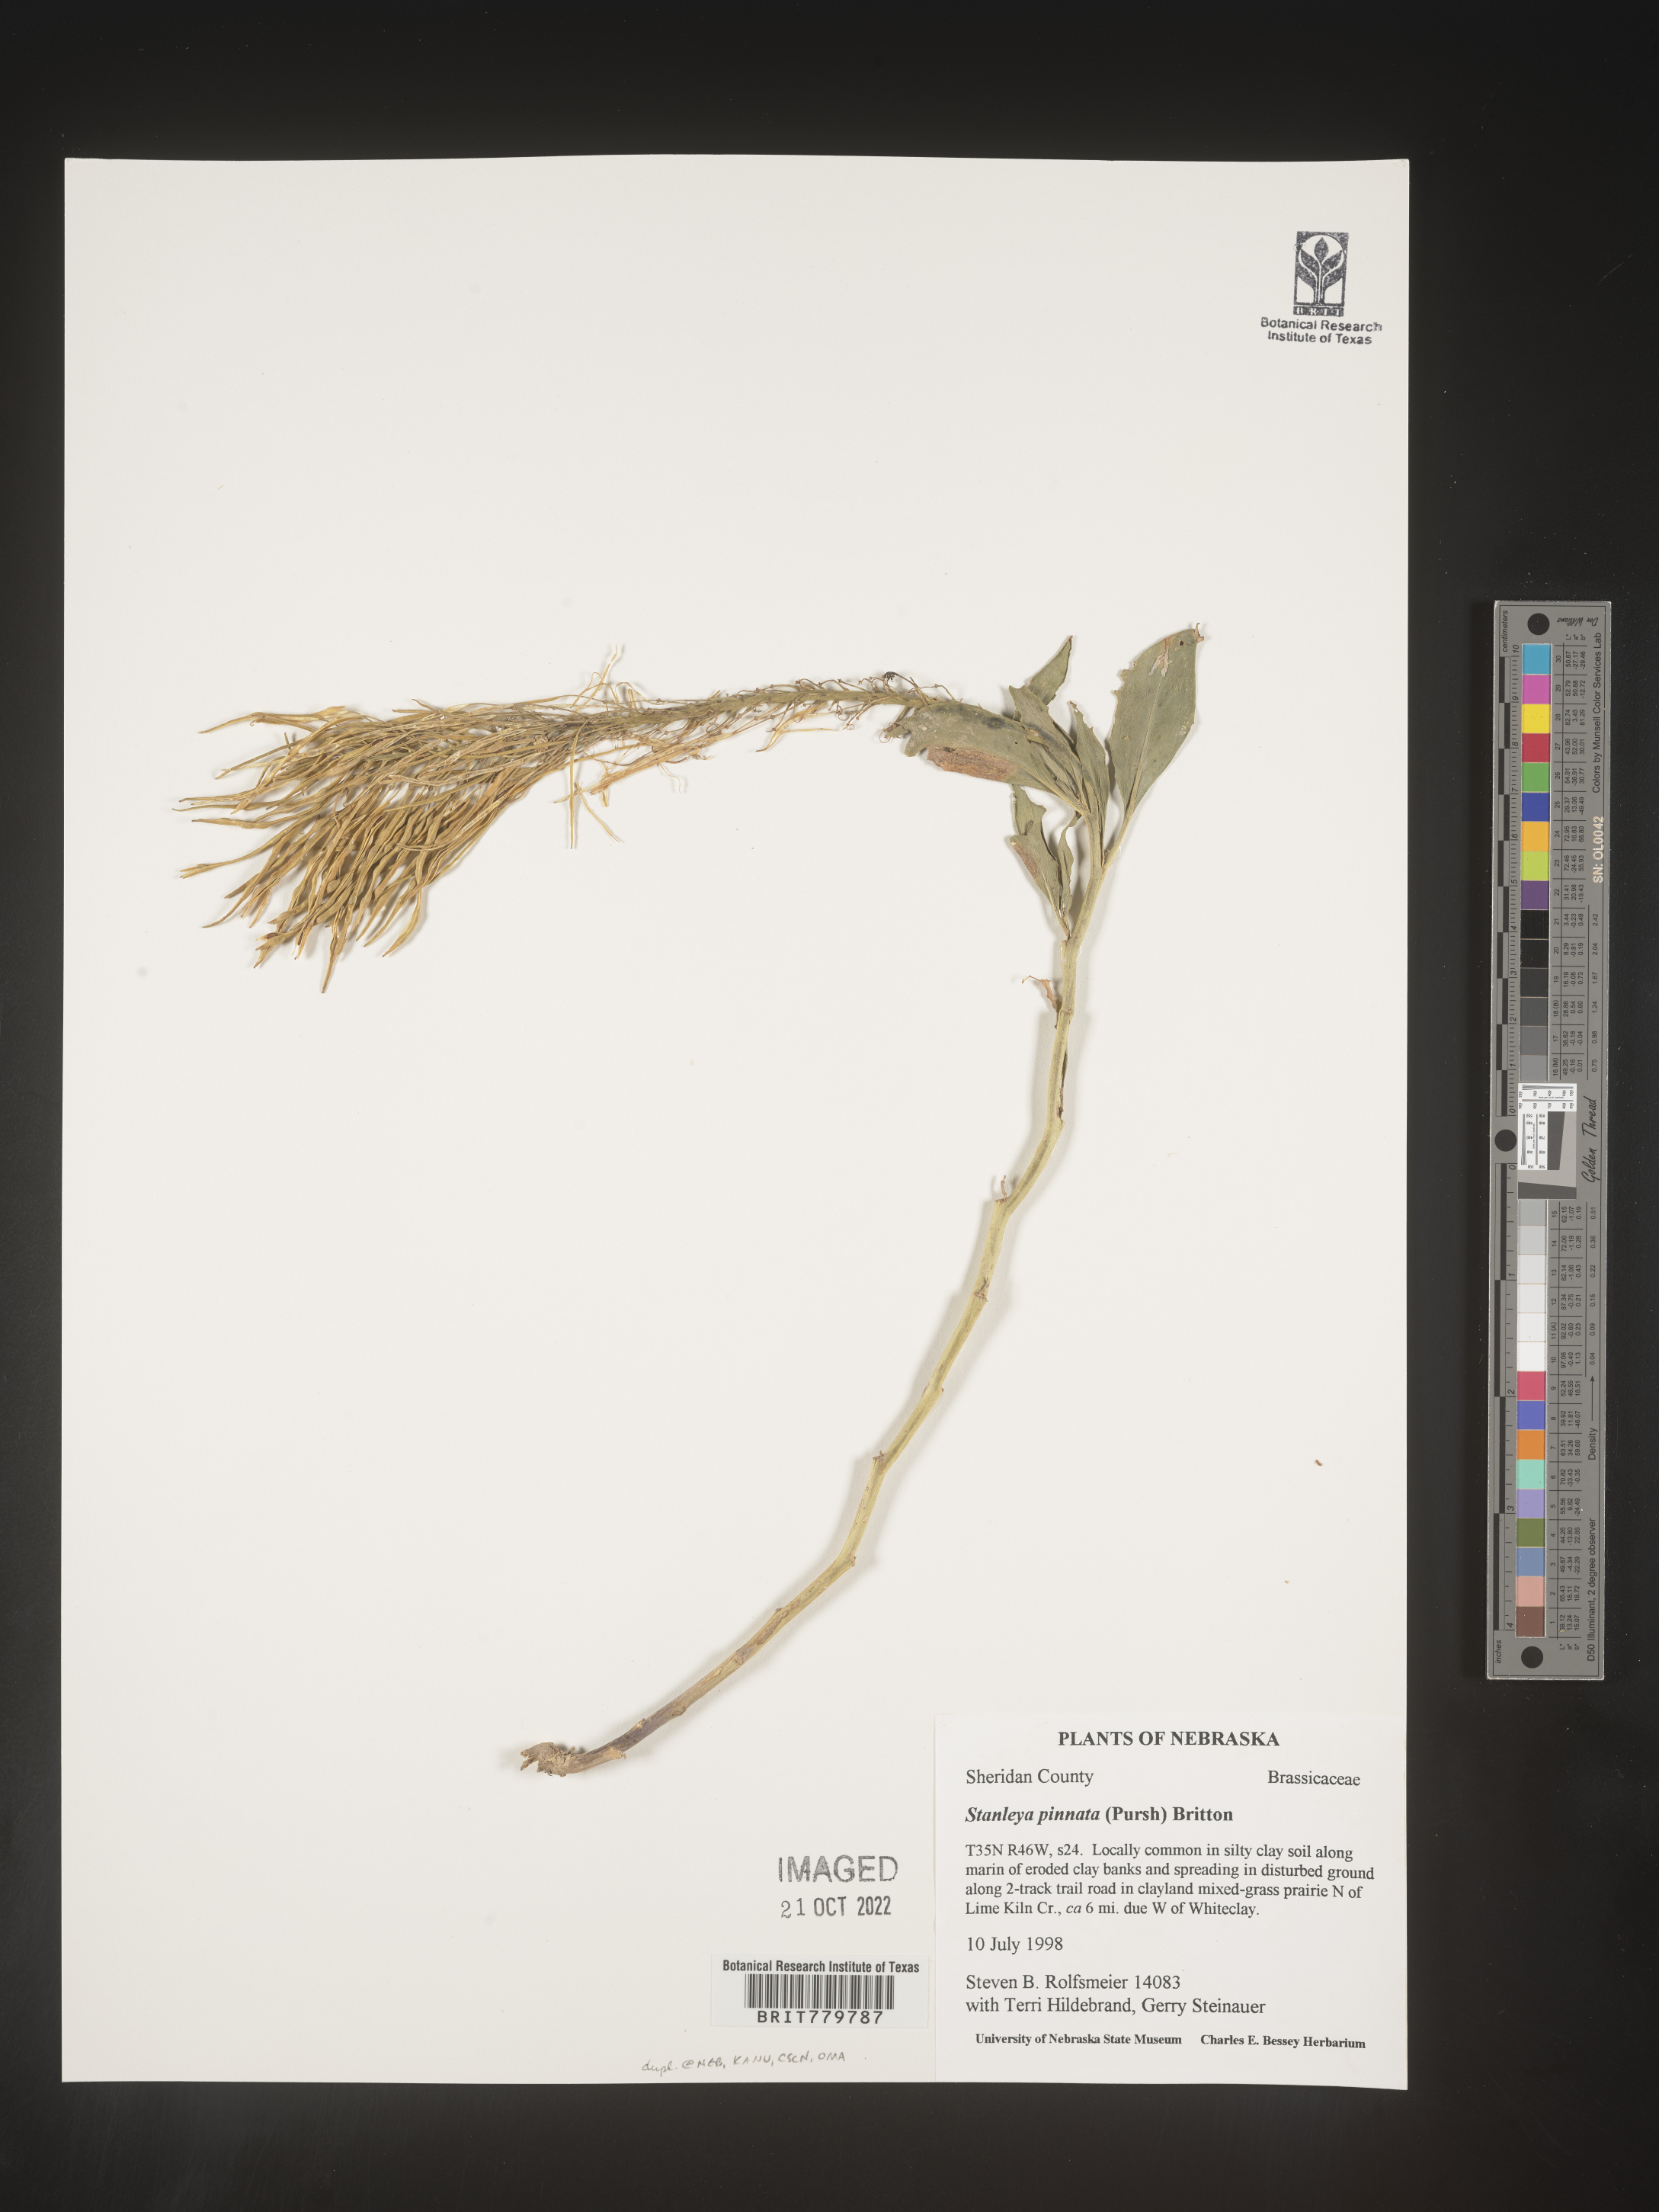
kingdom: Plantae
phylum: Tracheophyta
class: Magnoliopsida
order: Brassicales
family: Brassicaceae
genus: Stanleya
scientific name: Stanleya pinnata
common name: Prince's-plume
